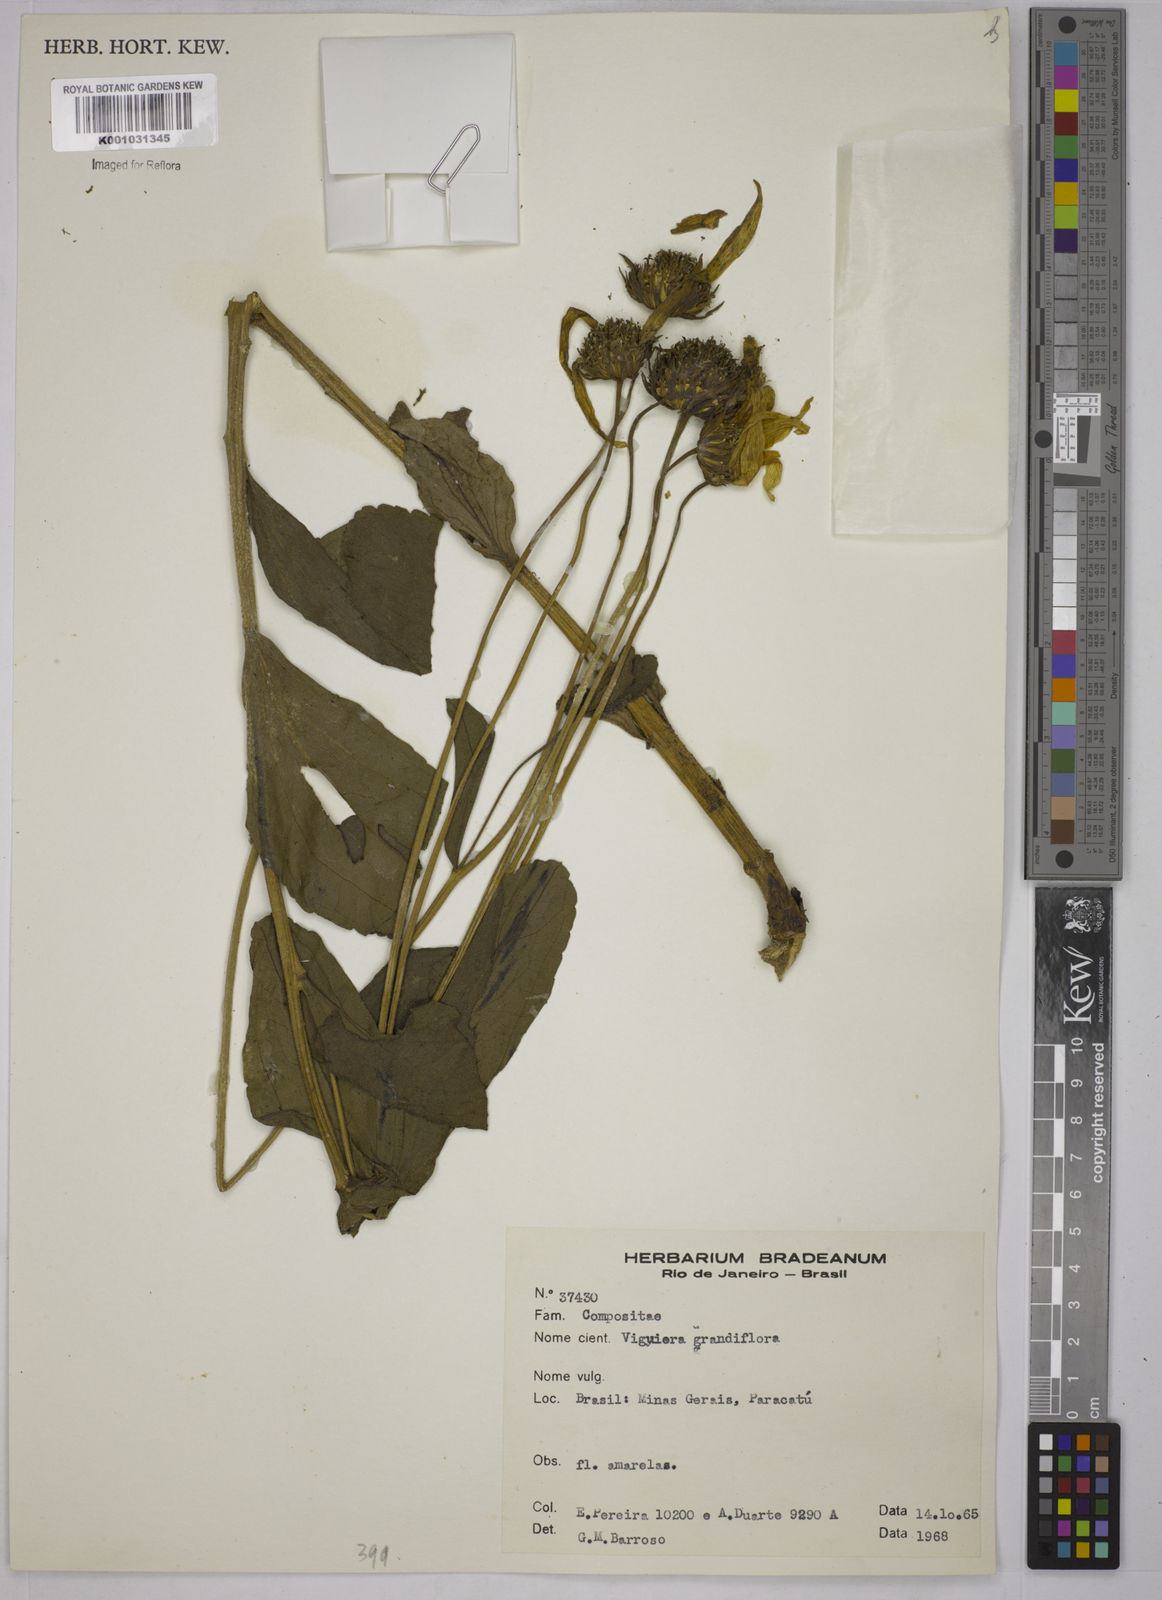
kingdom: Plantae
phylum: Tracheophyta
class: Magnoliopsida
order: Asterales
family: Asteraceae
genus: Aldama
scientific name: Aldama grandiflora
